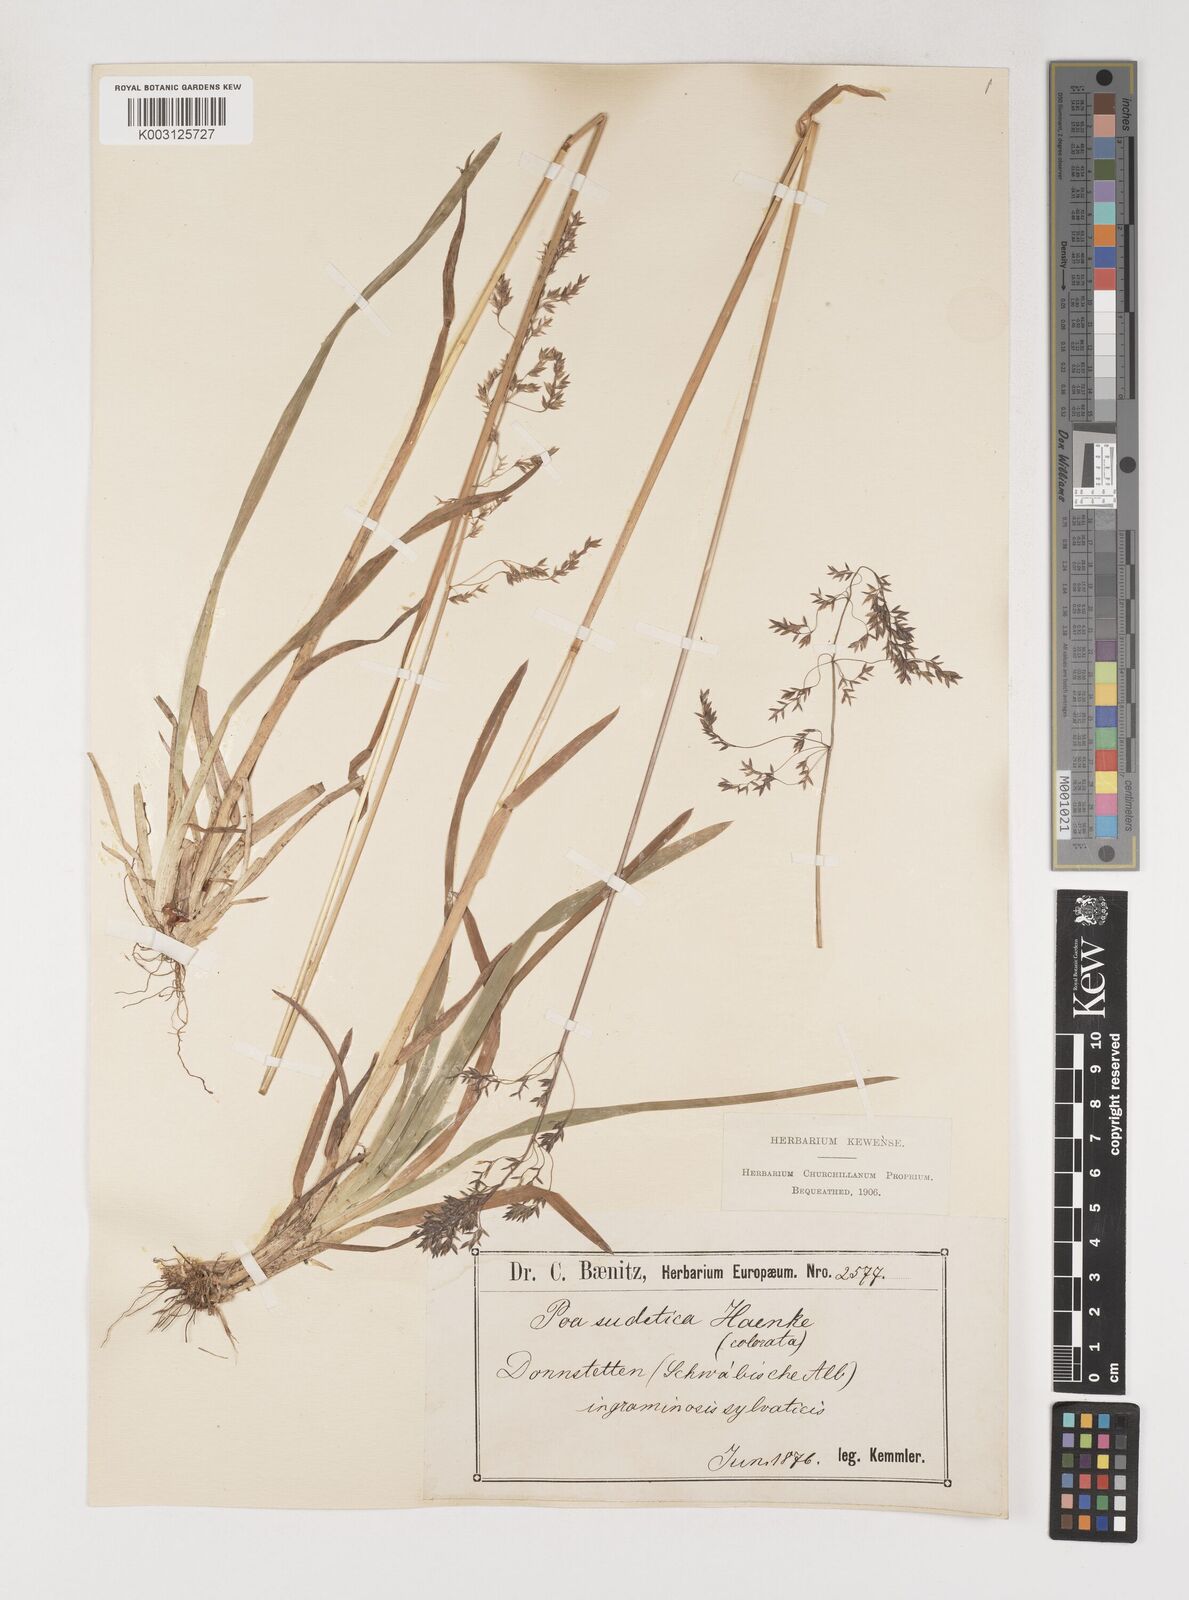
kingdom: Plantae
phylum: Tracheophyta
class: Liliopsida
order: Poales
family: Poaceae
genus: Poa
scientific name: Poa chaixii
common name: Broad-leaved meadow-grass
